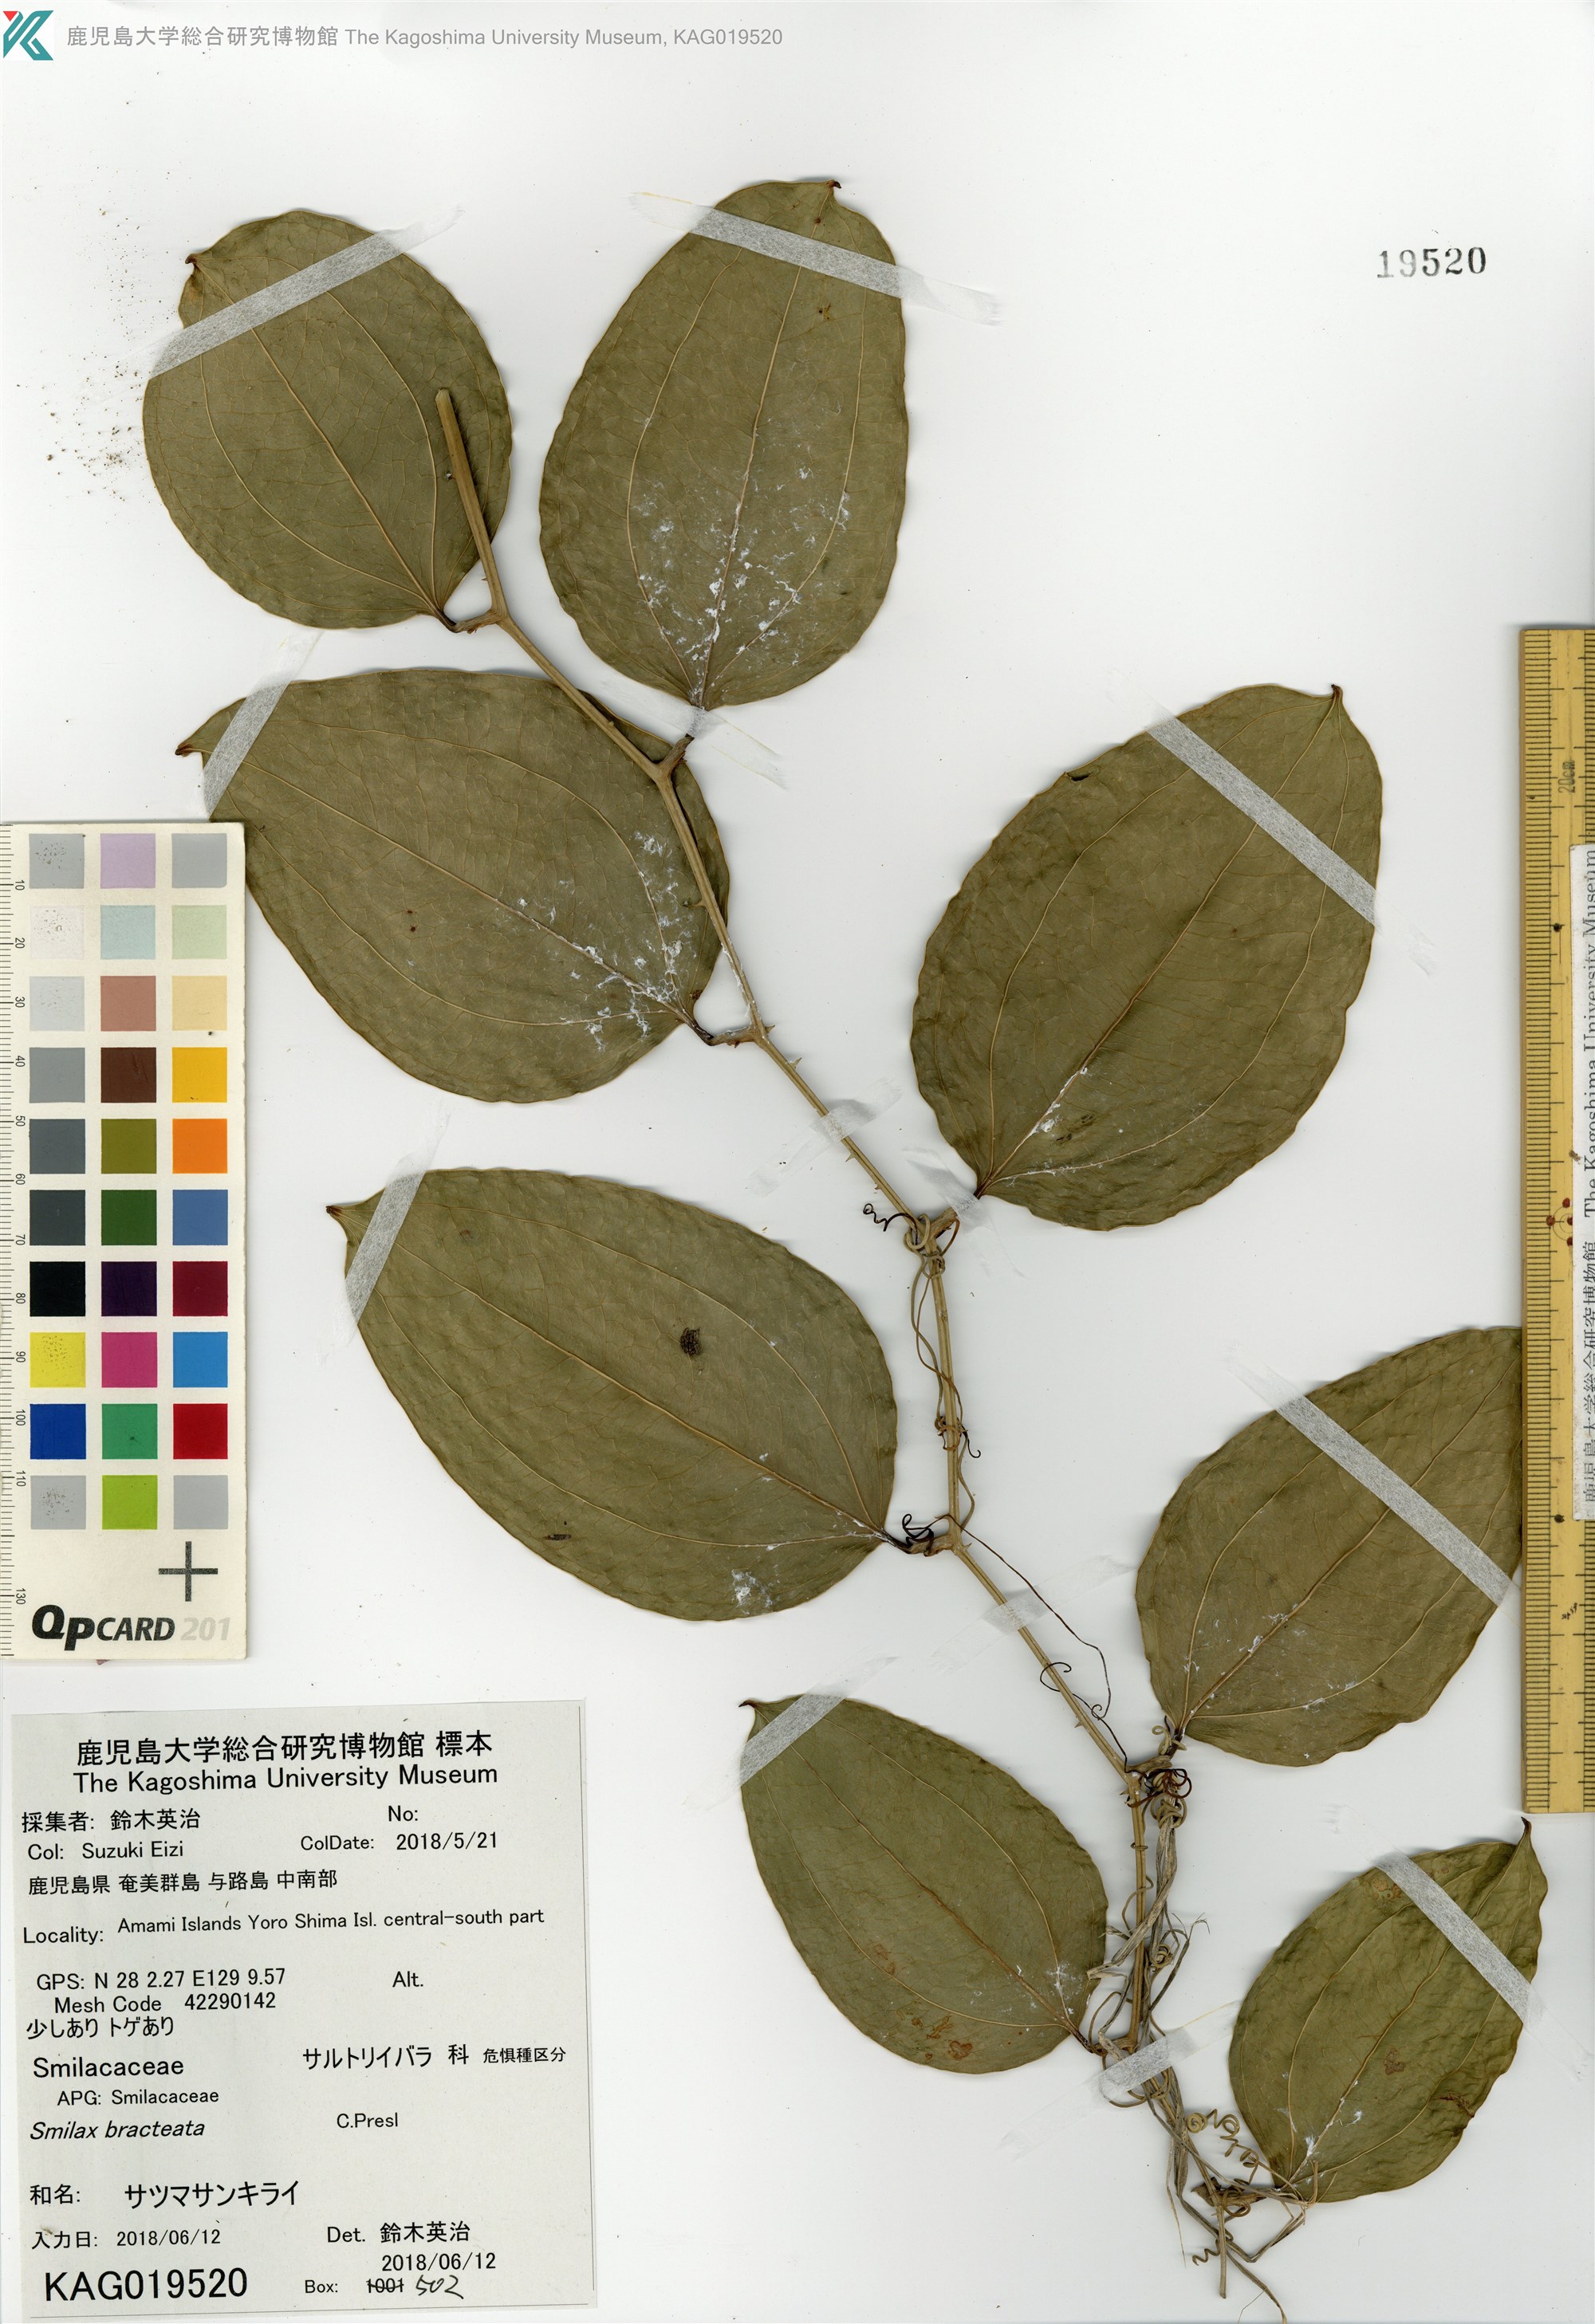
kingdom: Plantae
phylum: Tracheophyta
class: Liliopsida
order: Liliales
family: Smilacaceae
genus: Smilax
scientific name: Smilax bracteata
